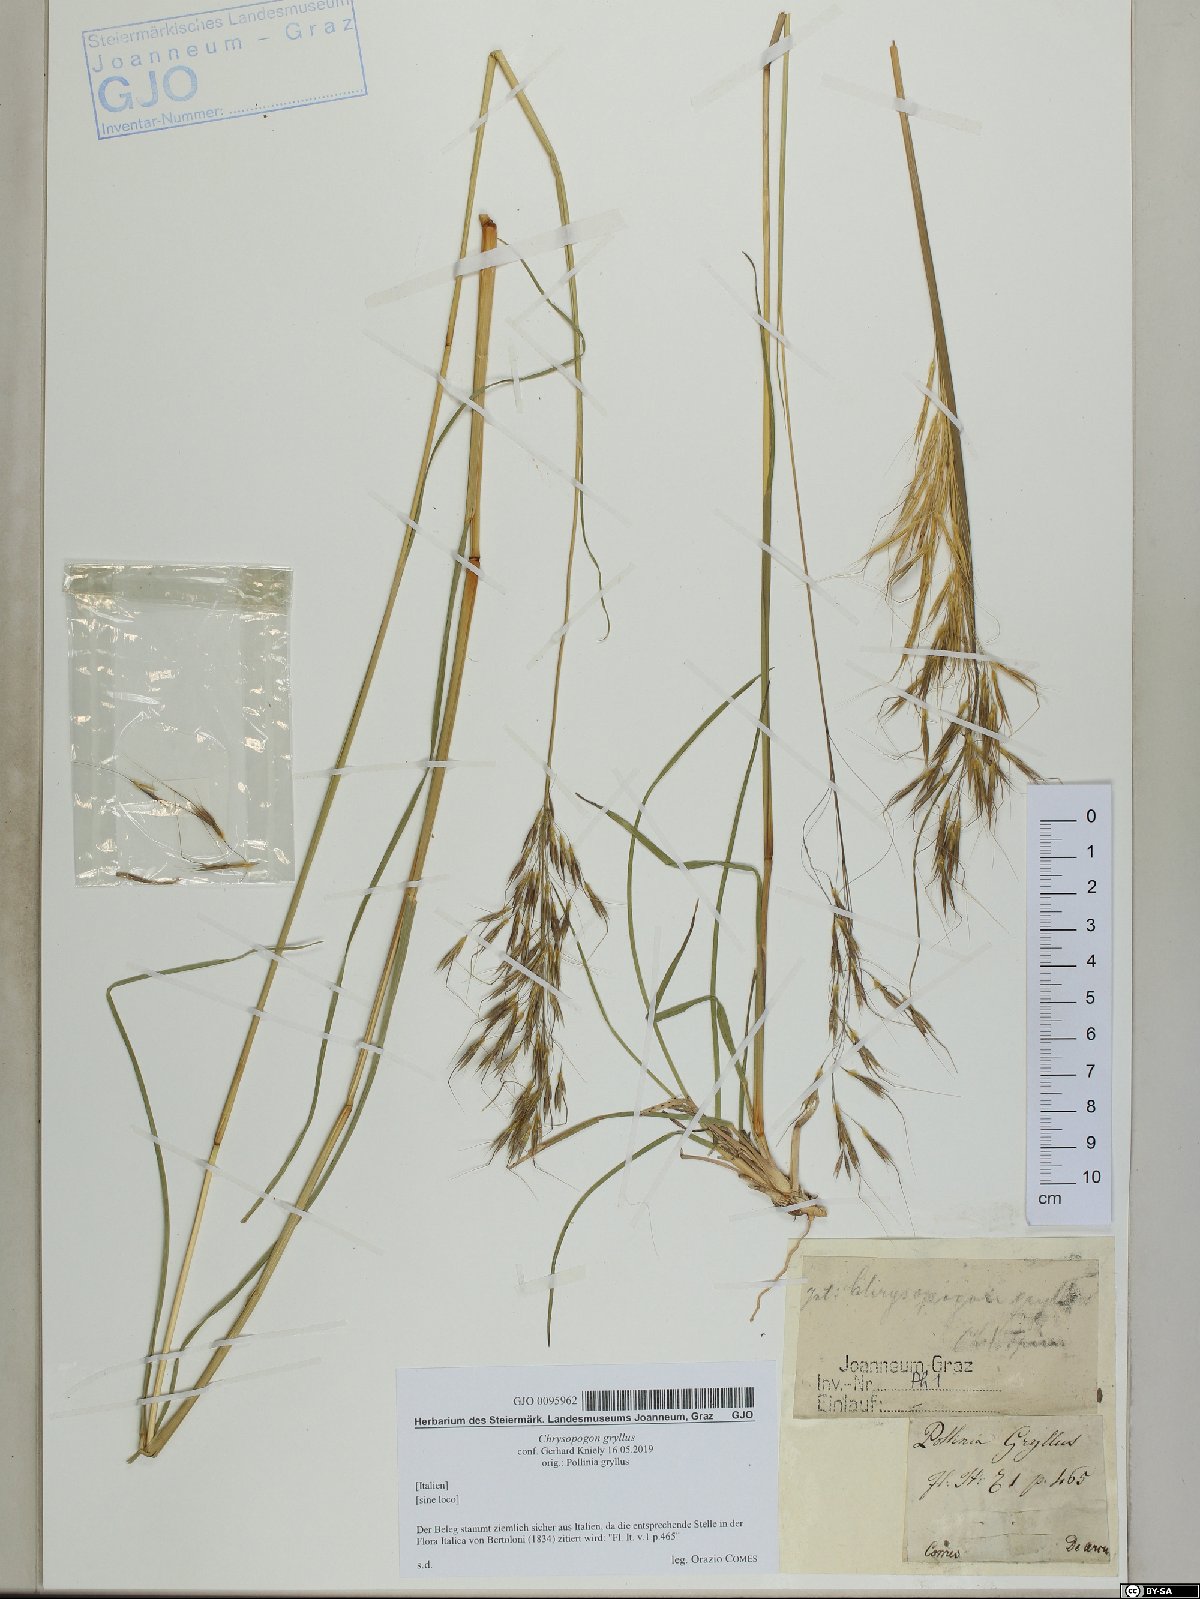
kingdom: Plantae
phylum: Tracheophyta
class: Liliopsida
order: Poales
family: Poaceae
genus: Chrysopogon
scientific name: Chrysopogon gryllus
